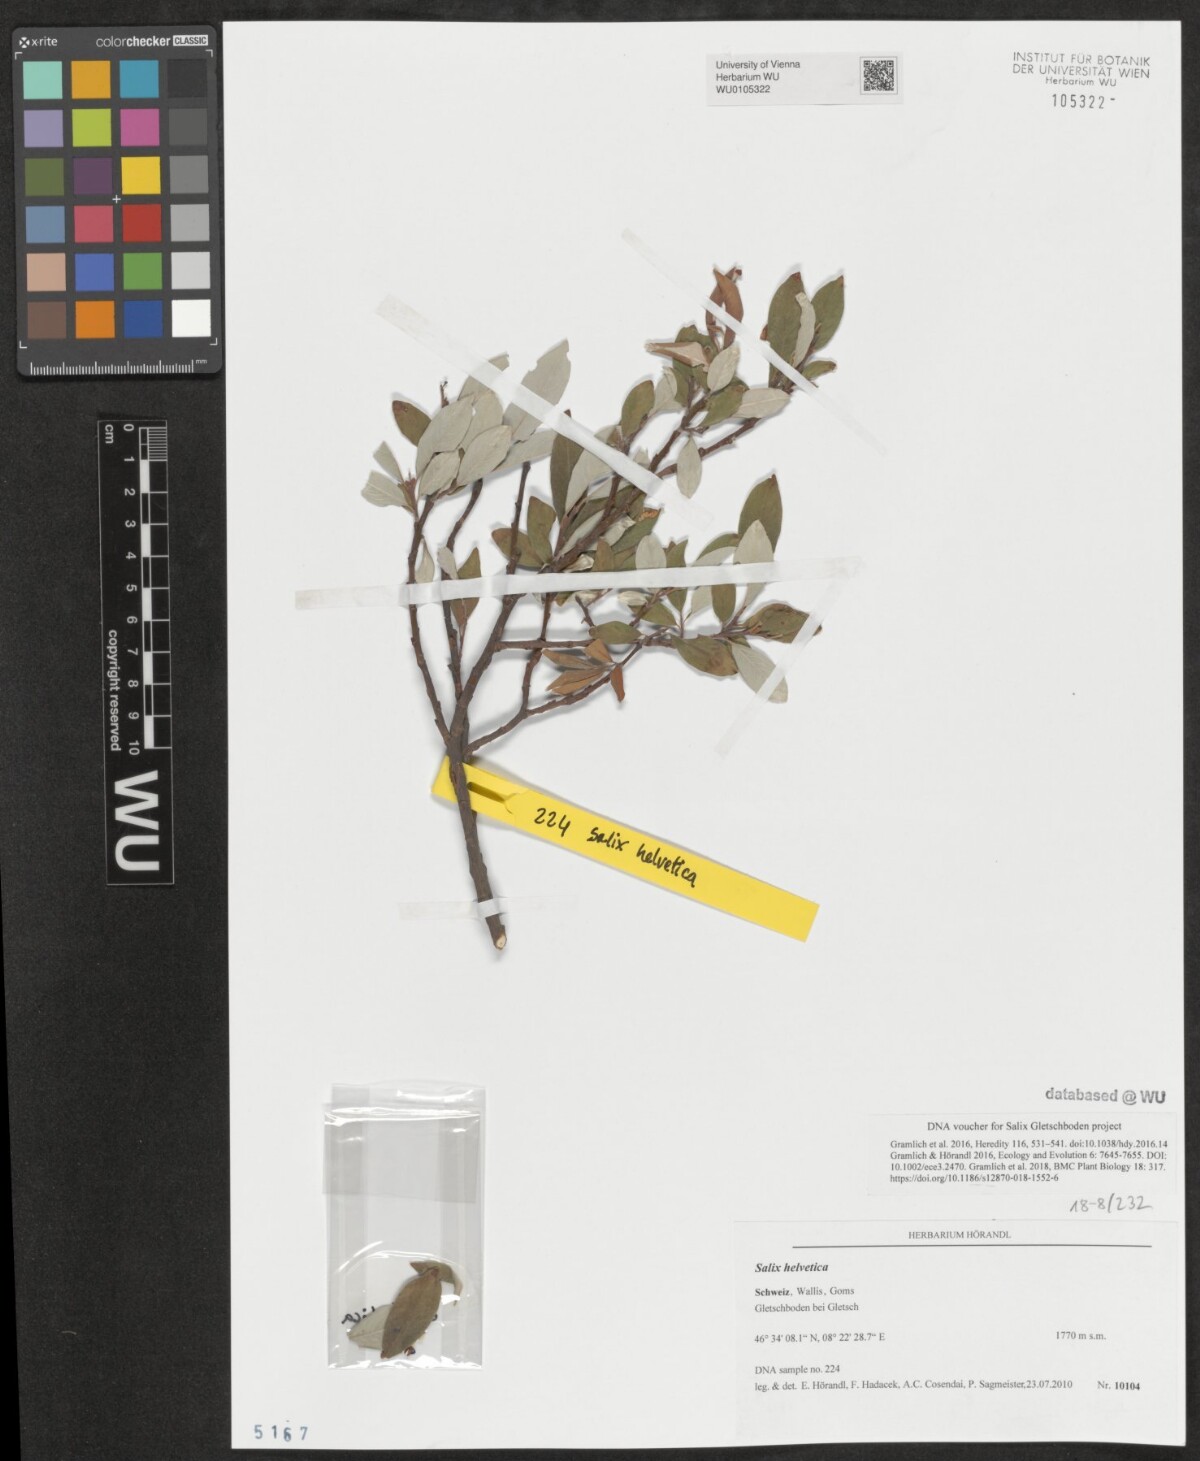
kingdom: Plantae
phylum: Tracheophyta
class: Magnoliopsida
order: Malpighiales
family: Salicaceae
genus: Salix
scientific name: Salix helvetica
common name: Swiss willow
